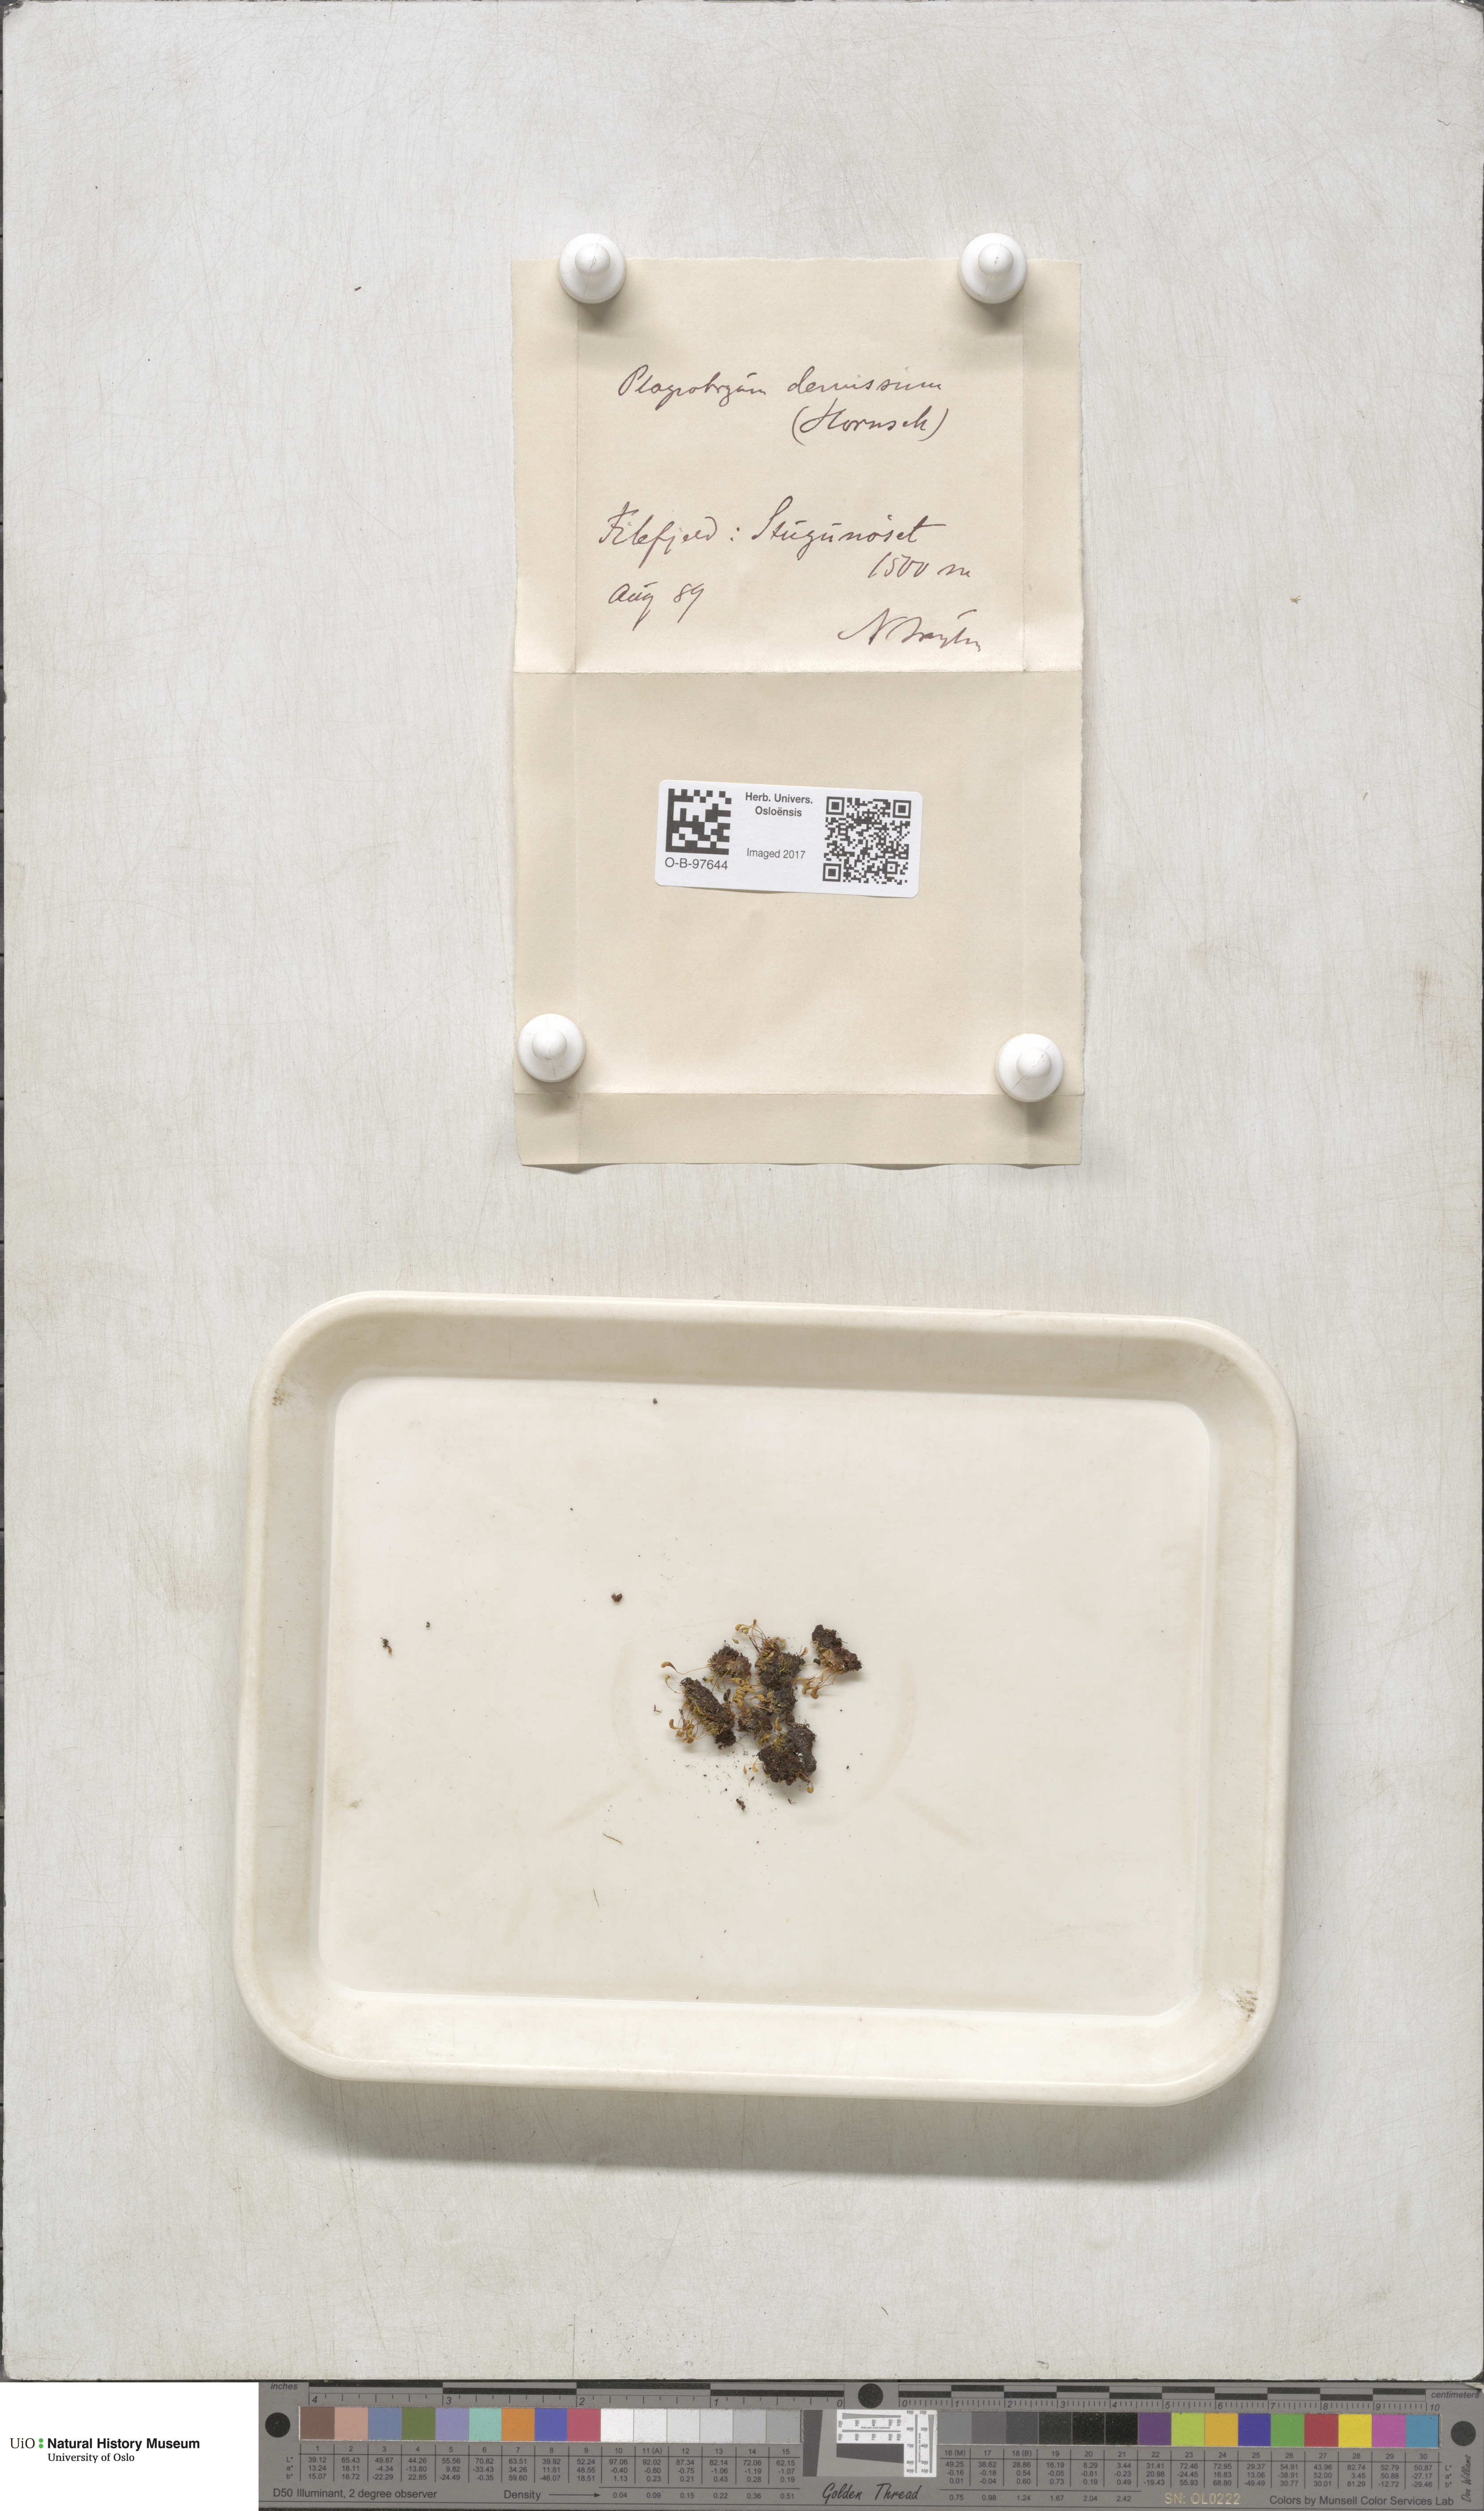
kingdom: Plantae
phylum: Bryophyta
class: Bryopsida
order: Bryales
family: Bryaceae
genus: Plagiobryum
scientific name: Plagiobryum demissum
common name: Drooping hump moss
